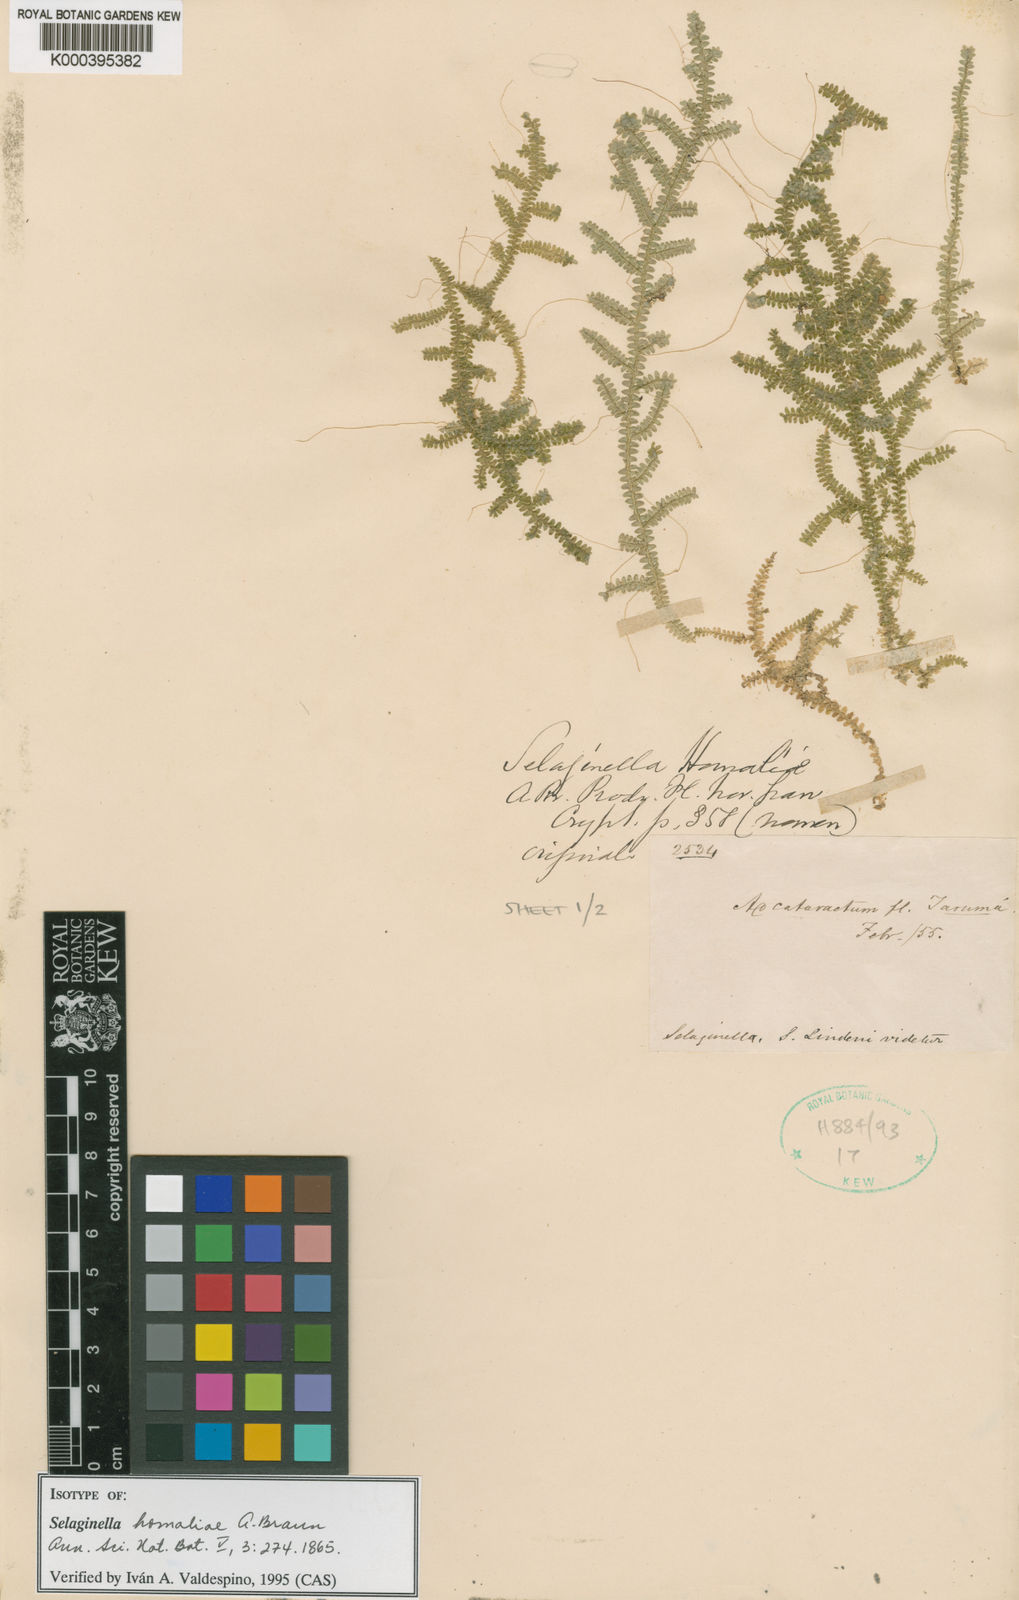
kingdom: Plantae
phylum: Tracheophyta
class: Lycopodiopsida
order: Selaginellales
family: Selaginellaceae
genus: Selaginella
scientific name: Selaginella
